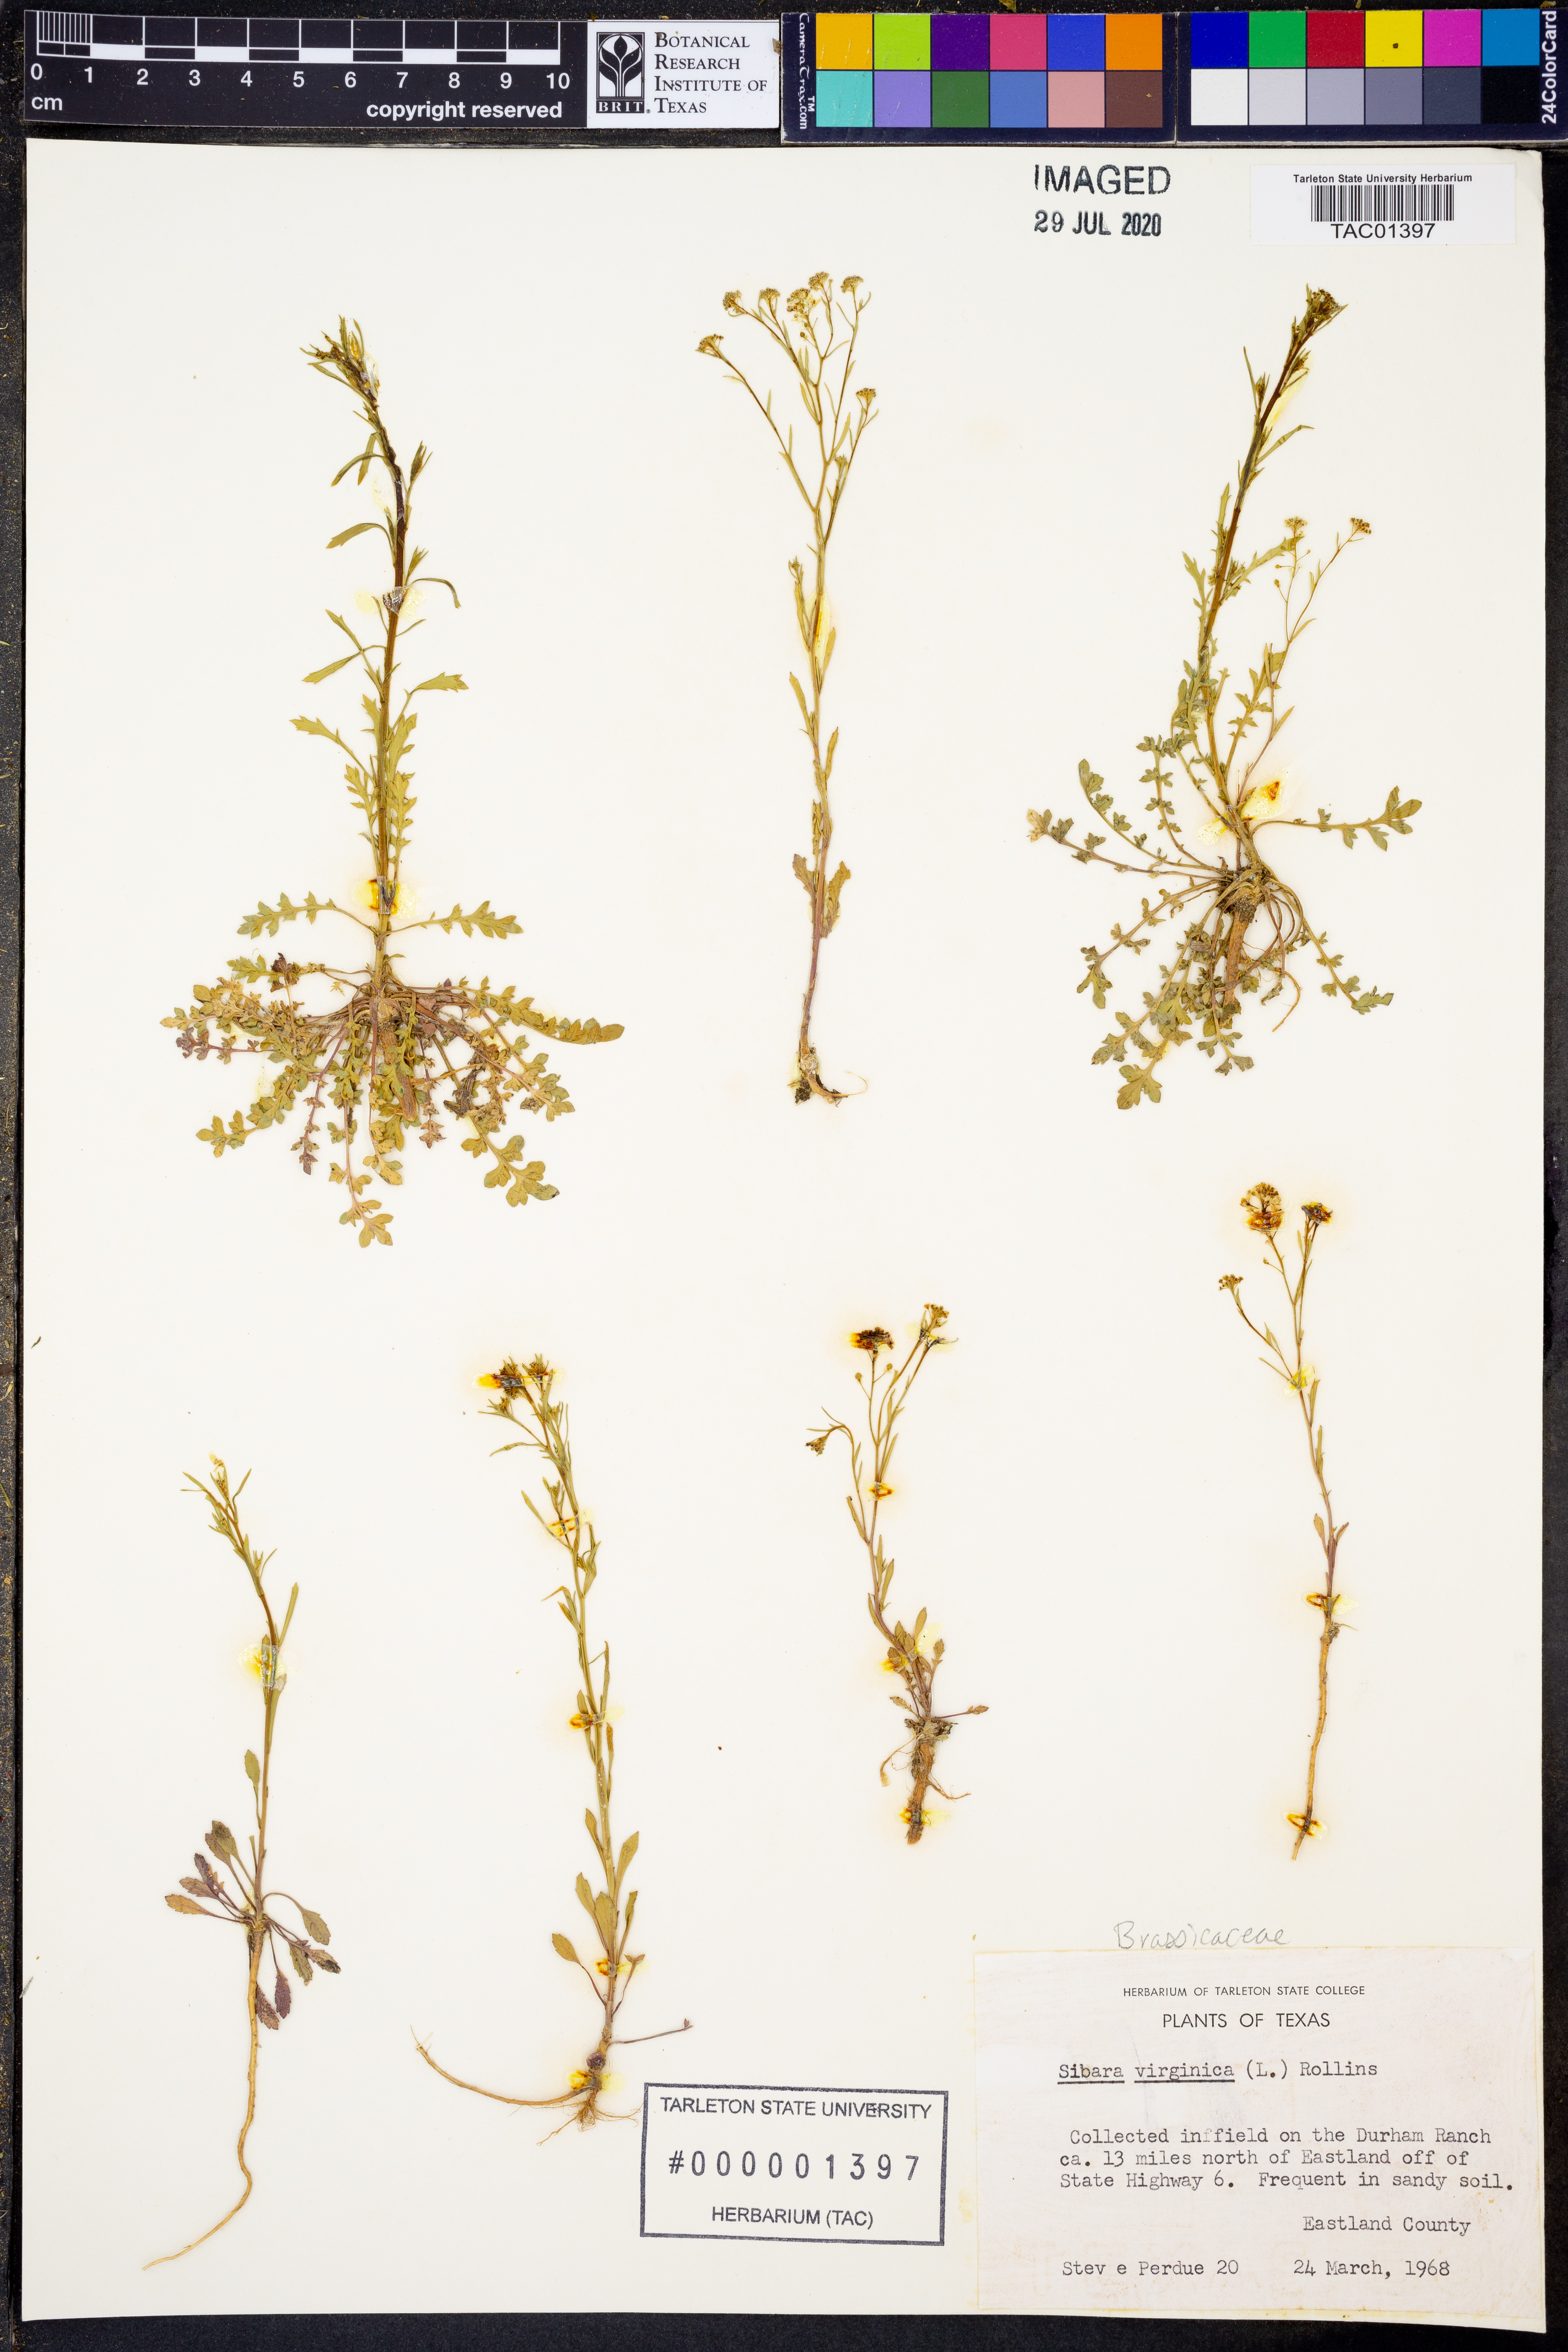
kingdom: Plantae
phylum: Tracheophyta
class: Magnoliopsida
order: Brassicales
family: Brassicaceae
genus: Planodes
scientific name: Planodes virginicum
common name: Virginia cress
